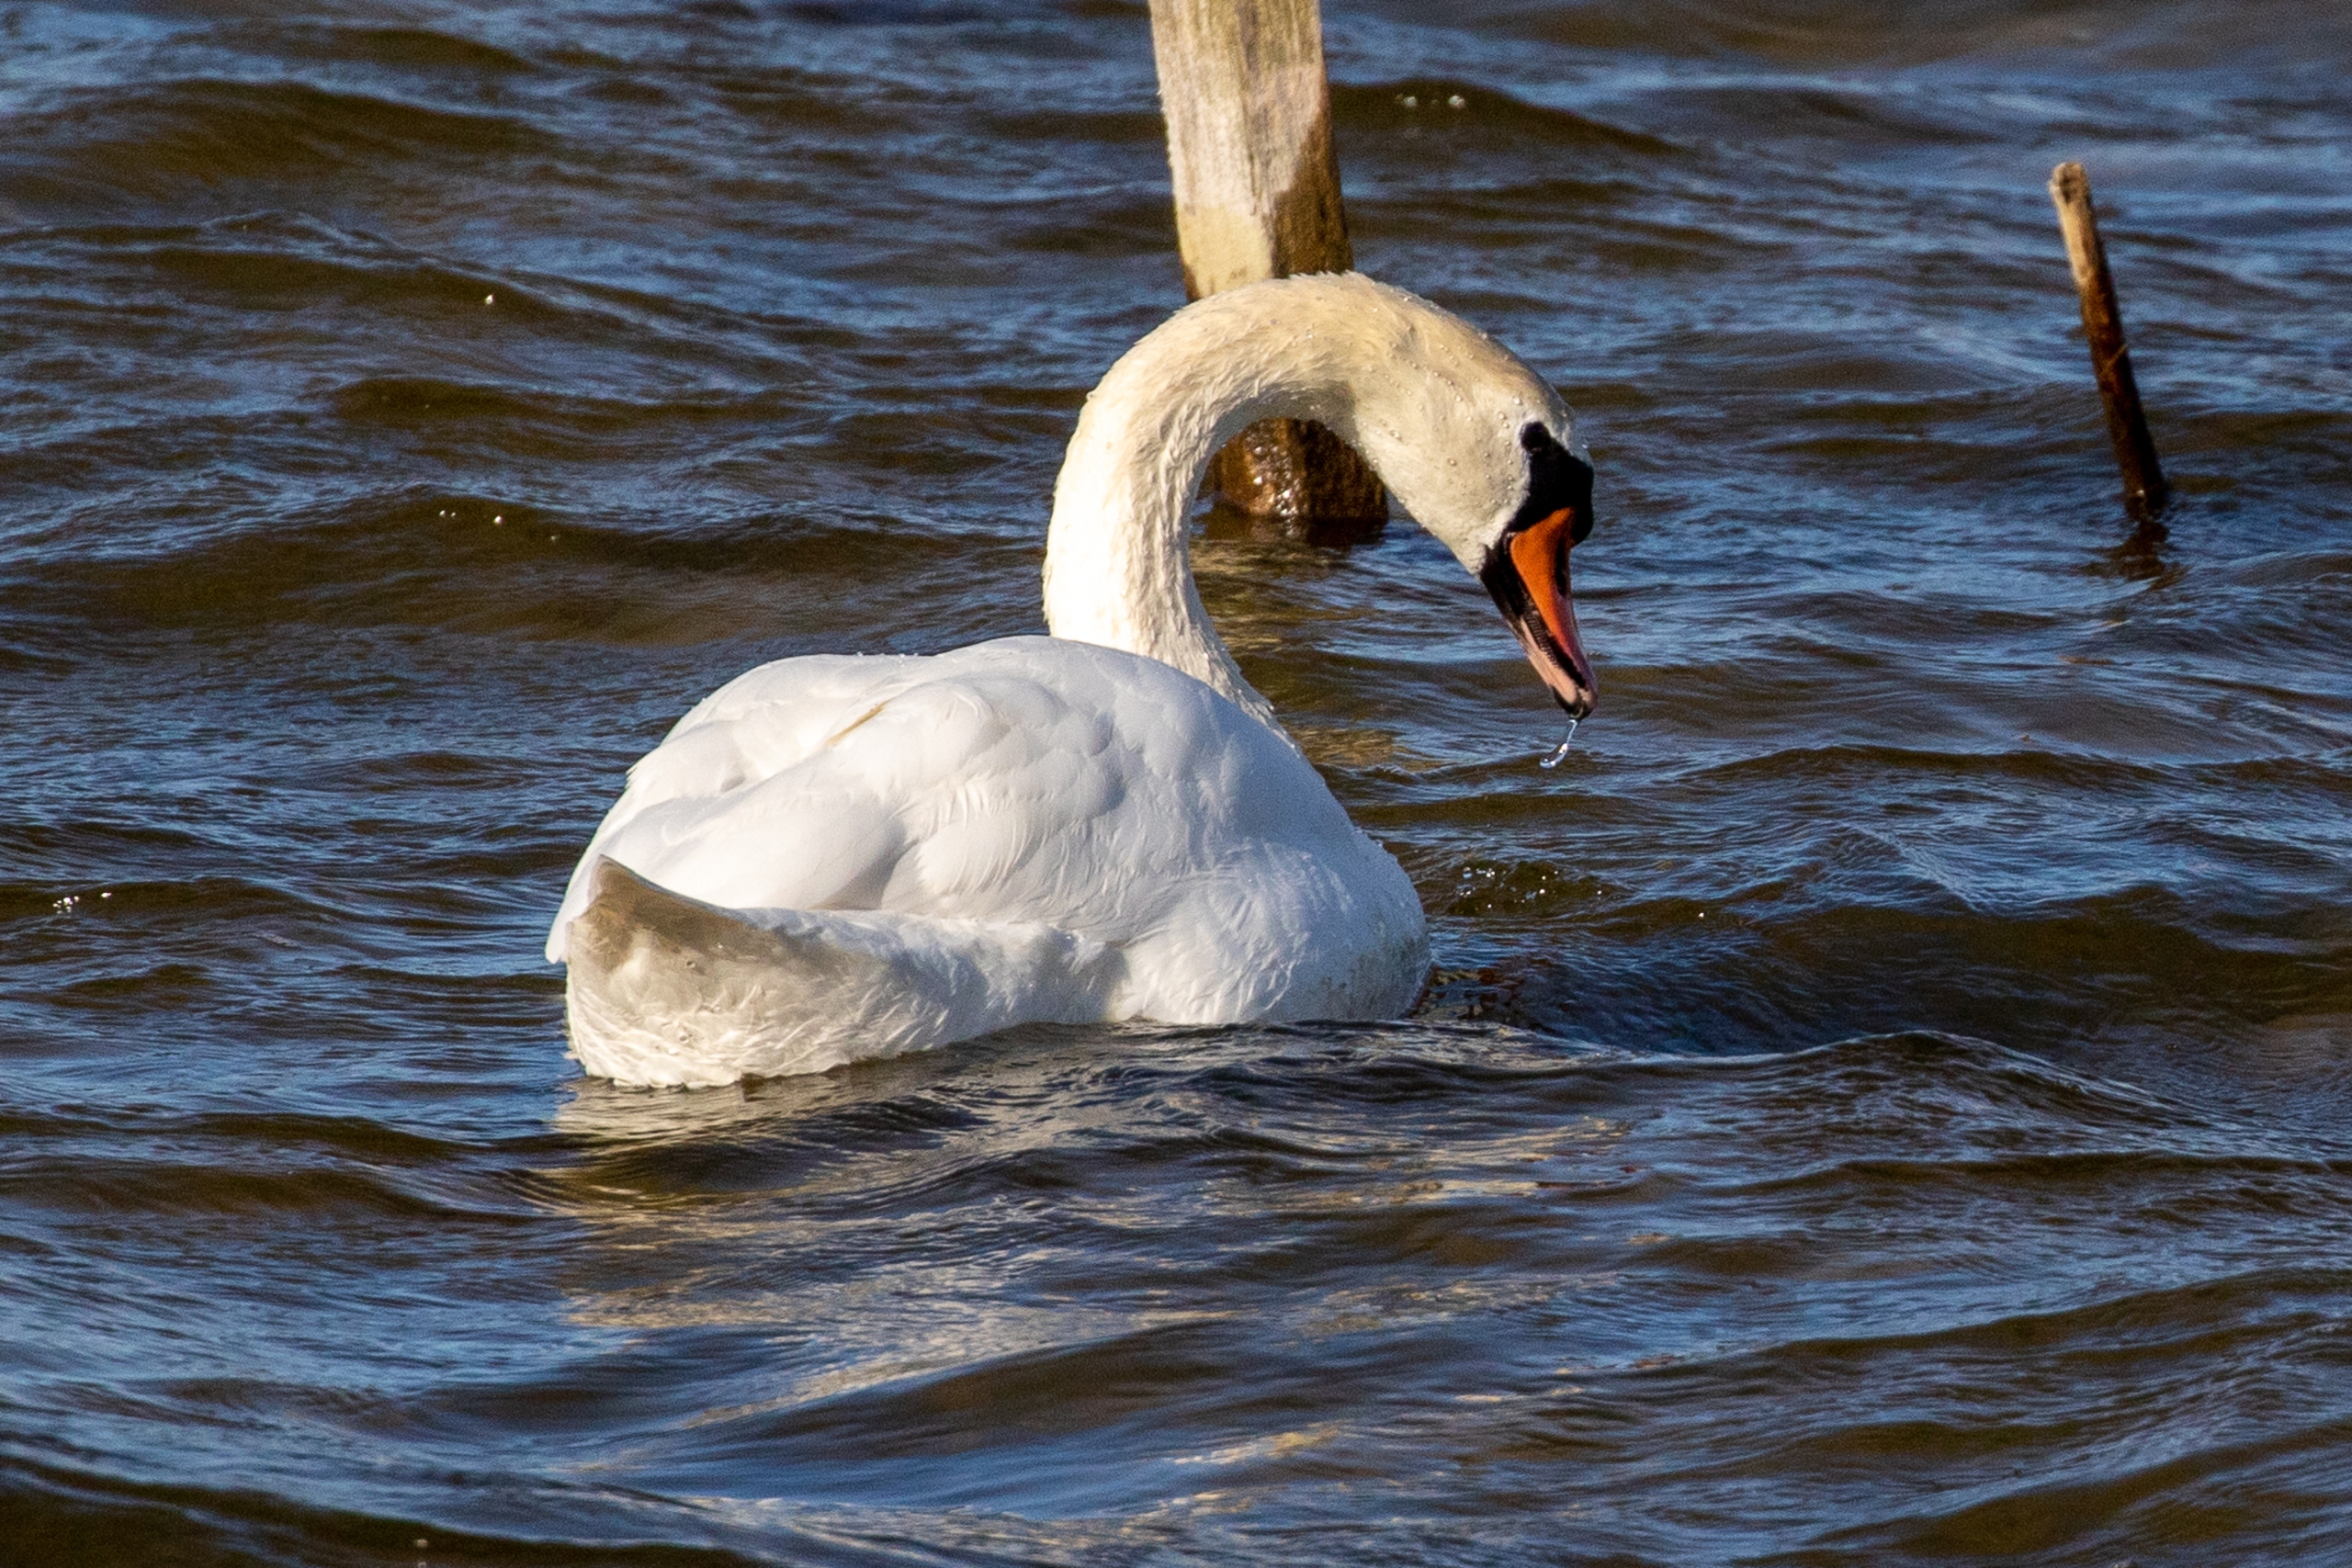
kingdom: Animalia
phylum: Chordata
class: Aves
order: Anseriformes
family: Anatidae
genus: Cygnus
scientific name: Cygnus olor
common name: Knopsvane
